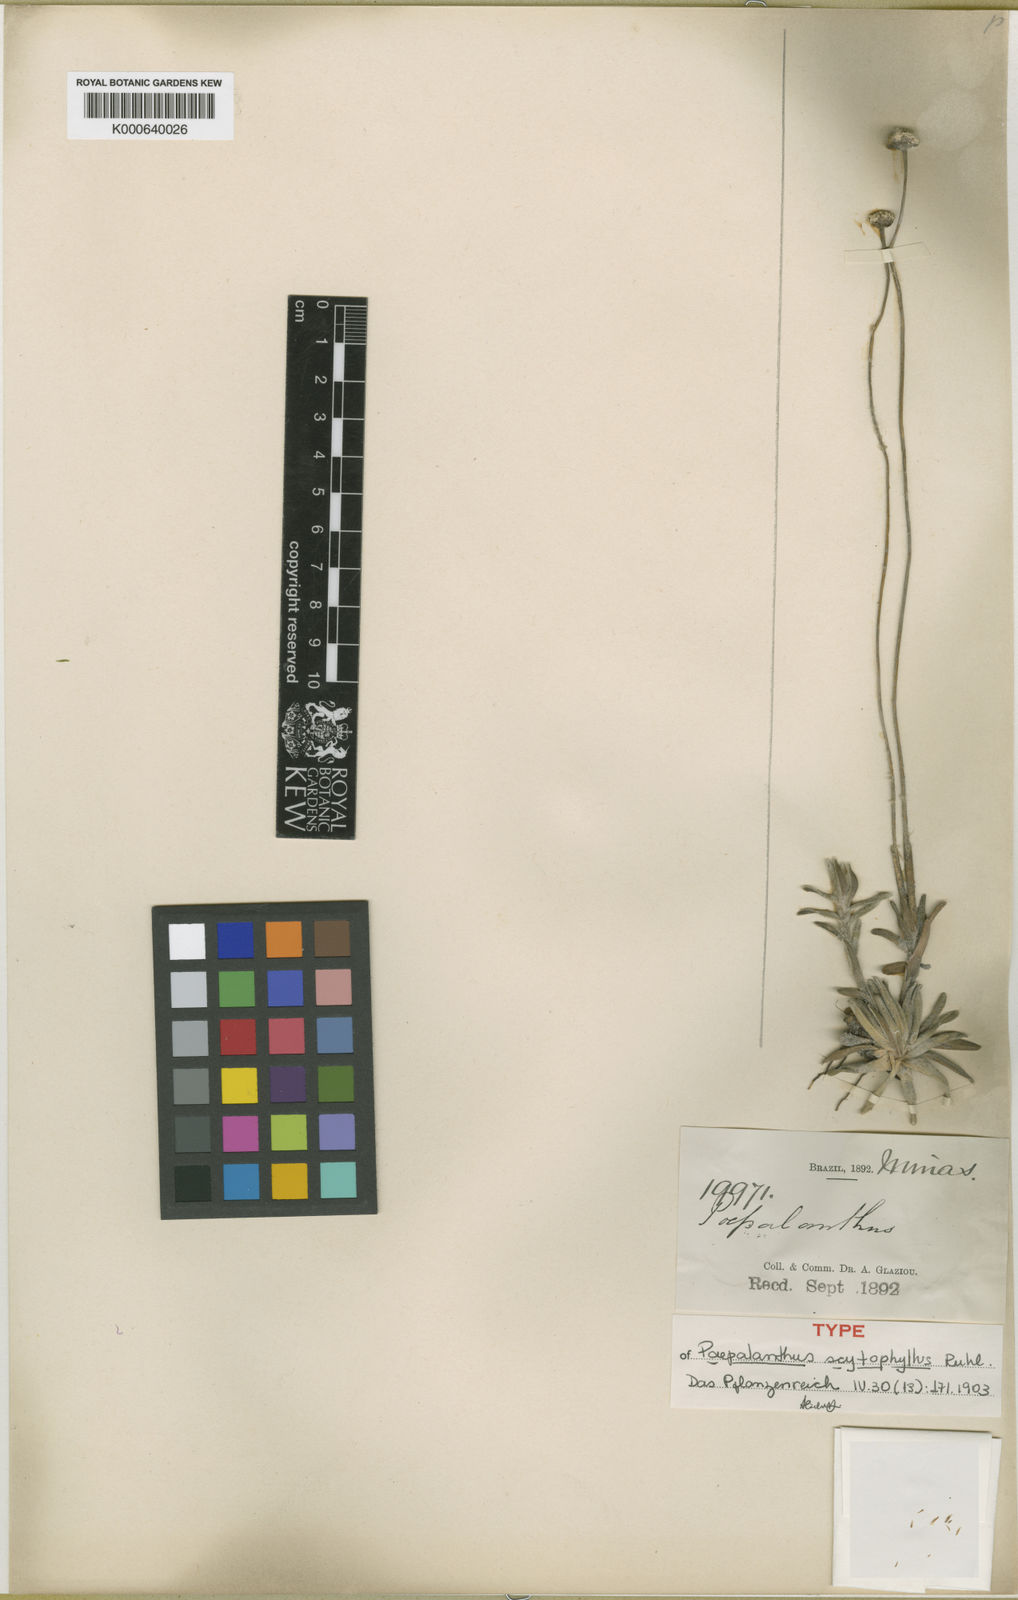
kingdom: Plantae
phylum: Tracheophyta
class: Liliopsida
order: Poales
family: Eriocaulaceae
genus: Paepalanthus
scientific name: Paepalanthus scytophyllus
